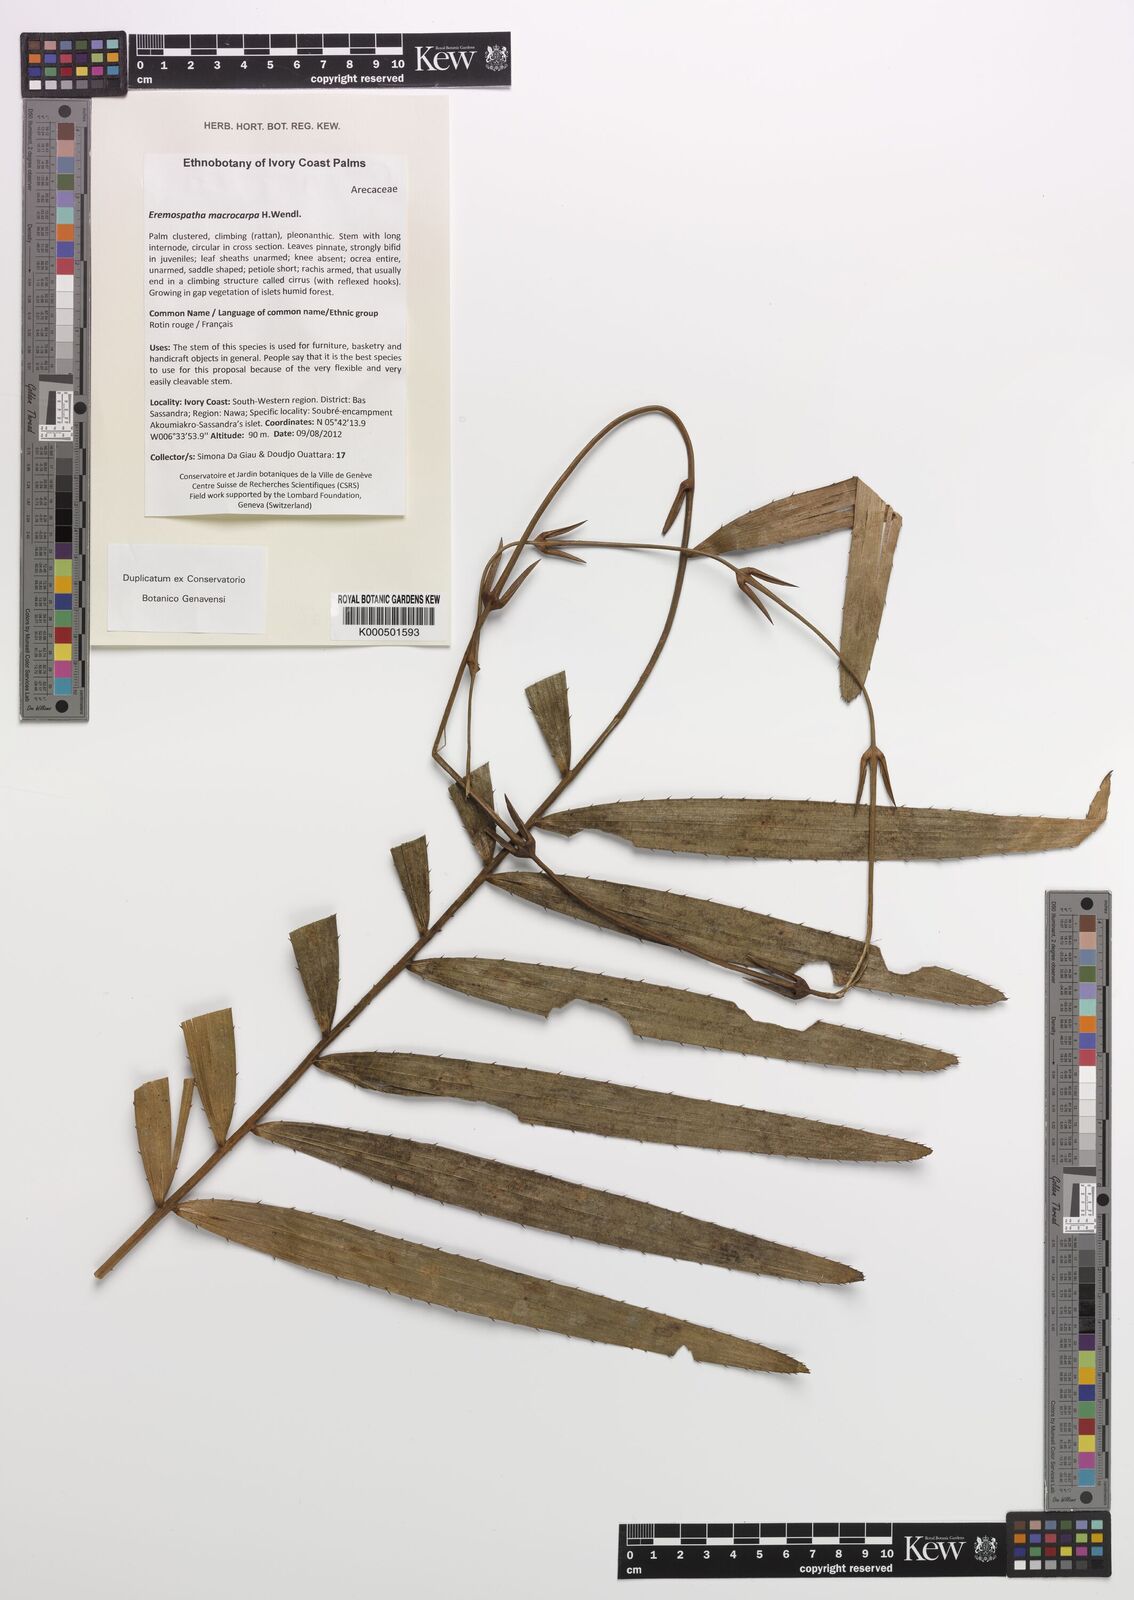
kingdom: Plantae
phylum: Tracheophyta
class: Liliopsida
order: Arecales
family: Arecaceae
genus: Eremospatha
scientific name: Eremospatha macrocarpa
